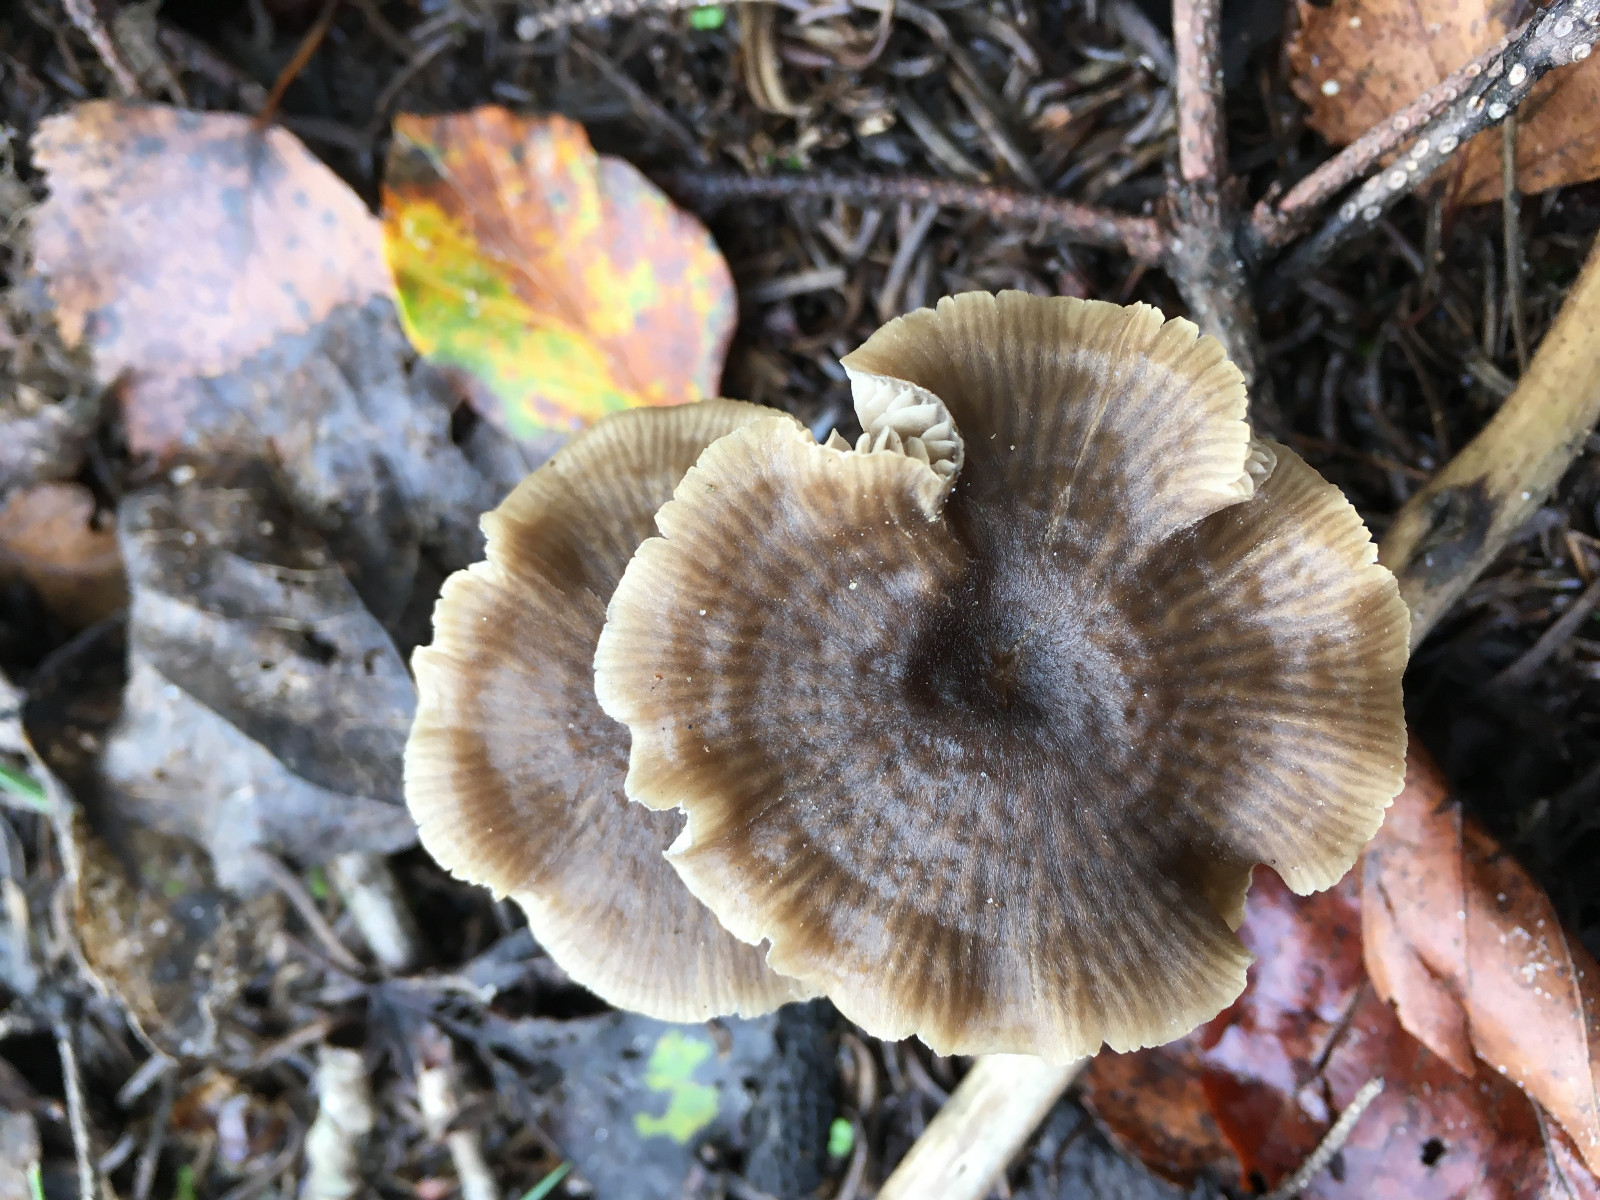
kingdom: Fungi
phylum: Basidiomycota
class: Agaricomycetes
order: Agaricales
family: Entolomataceae
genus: Entoloma
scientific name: Entoloma minutum
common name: liden rødblad
